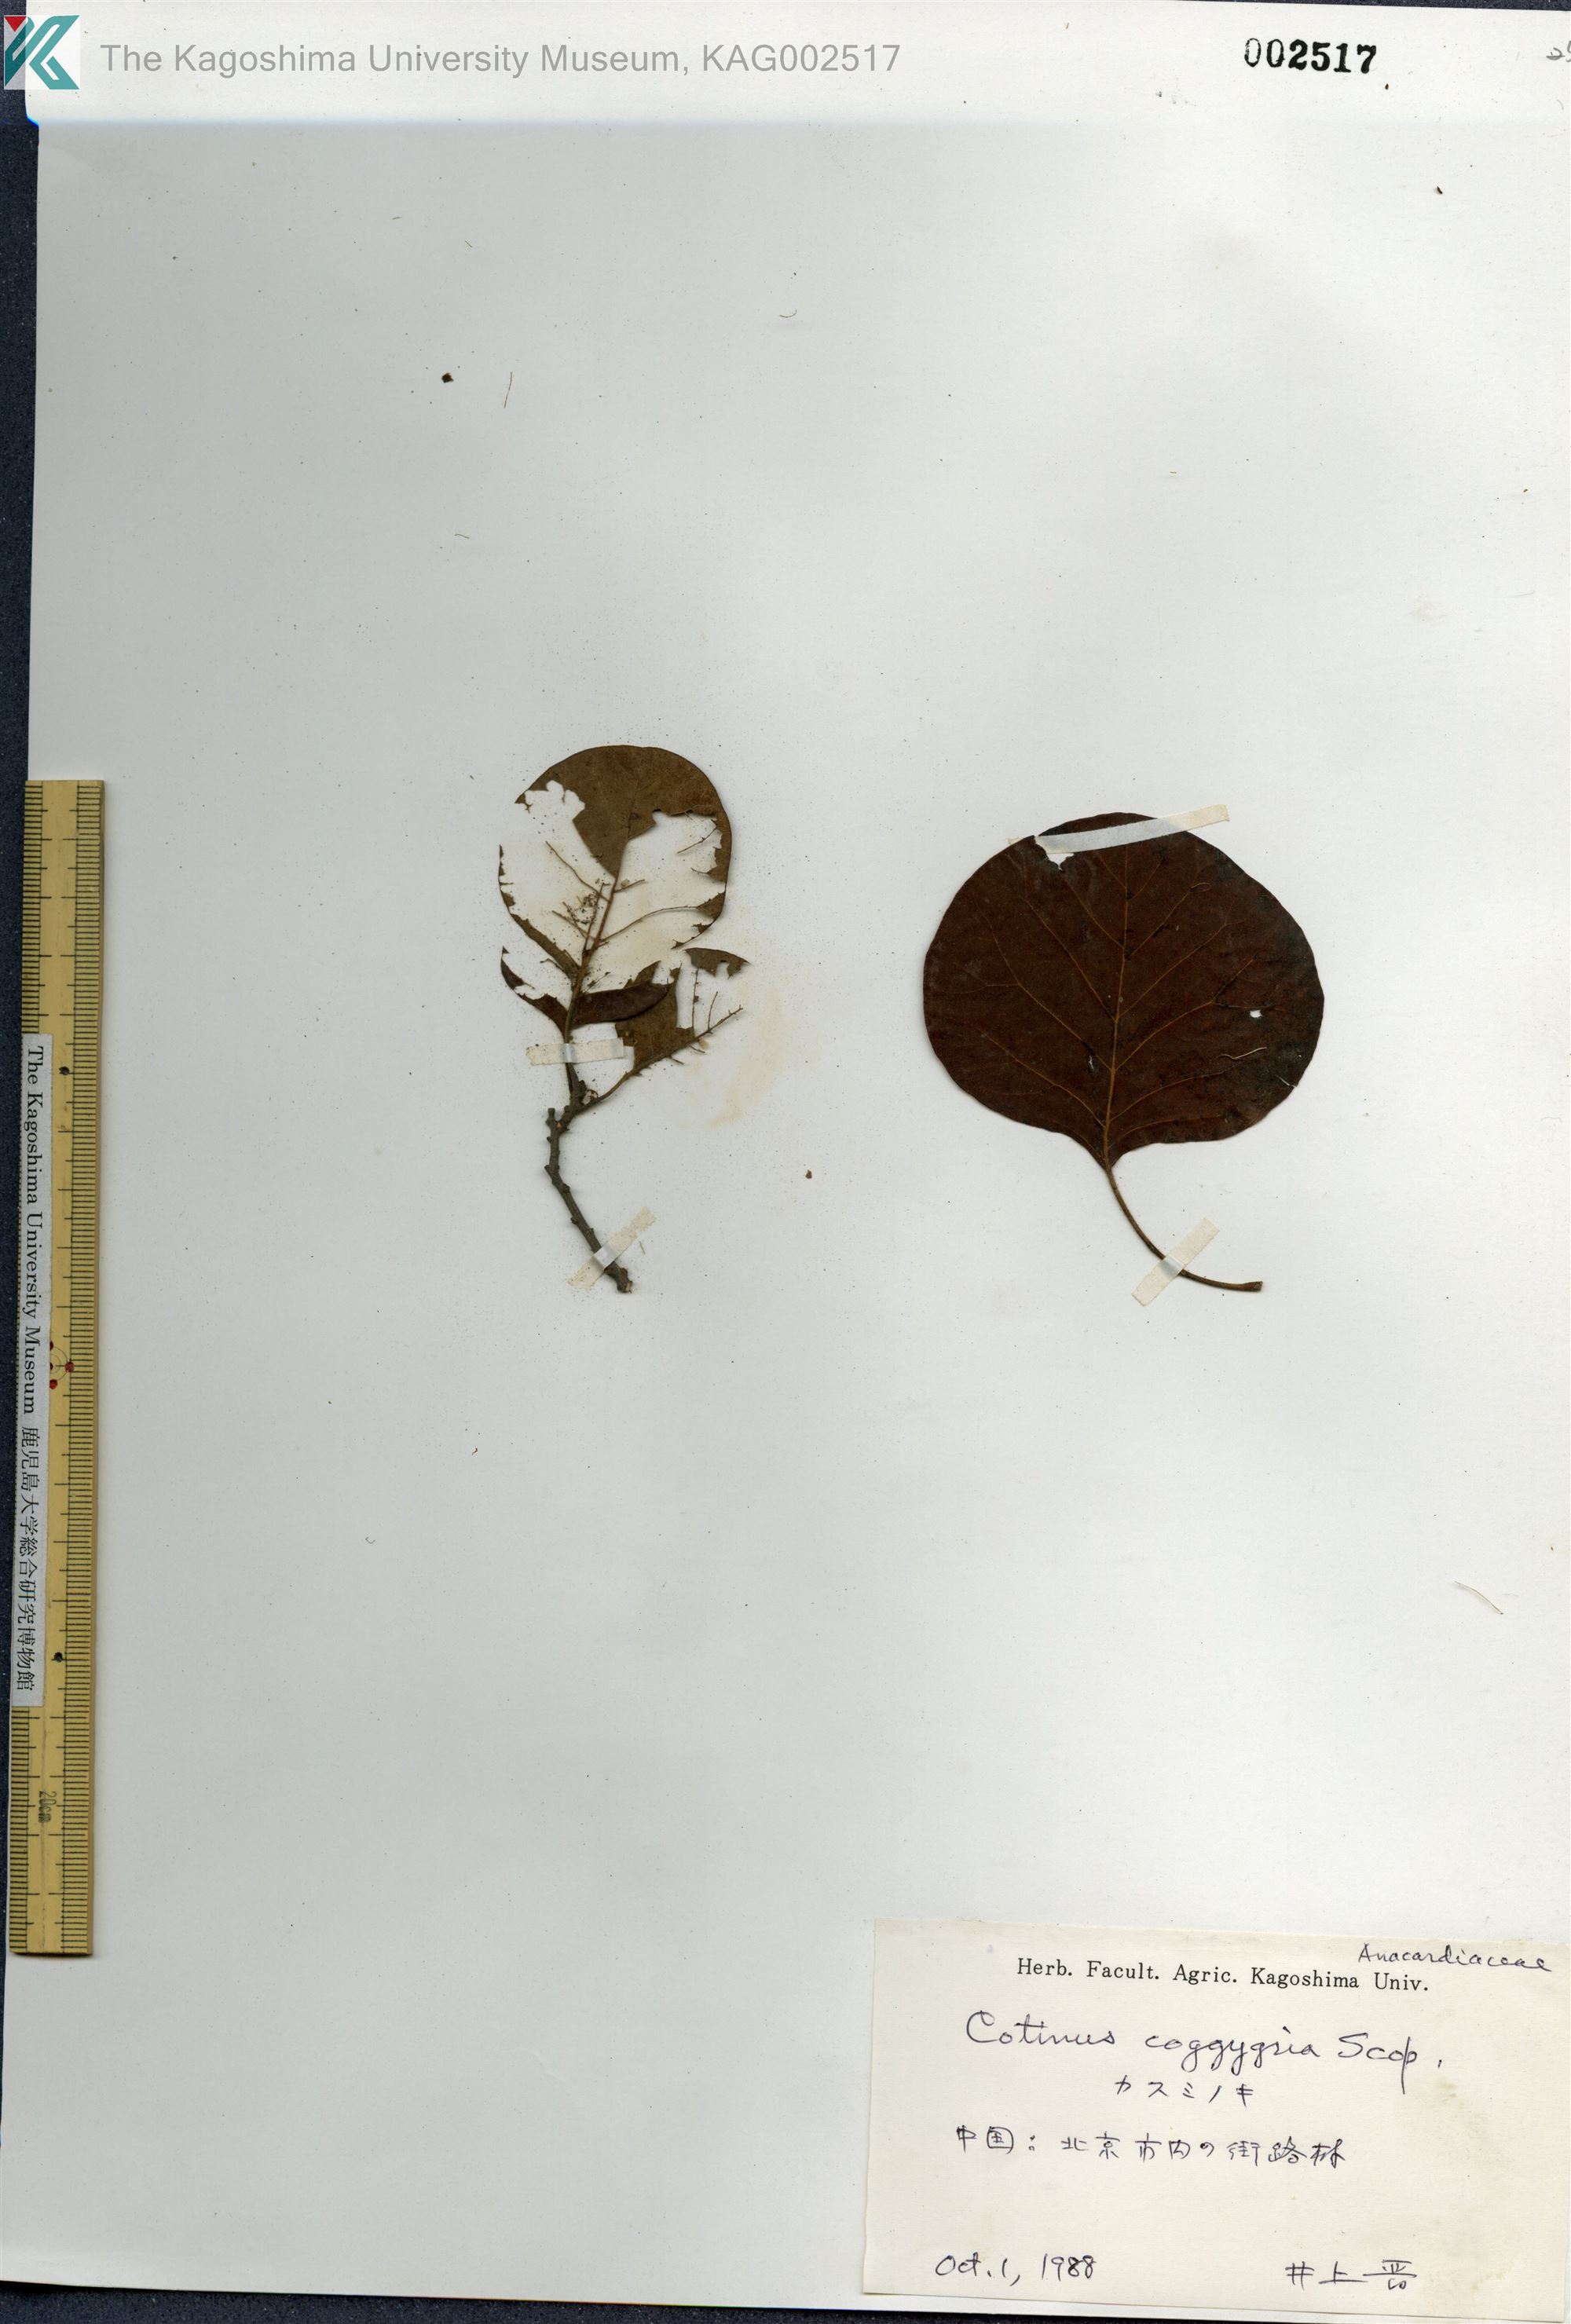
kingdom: Plantae
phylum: Tracheophyta
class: Magnoliopsida
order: Sapindales
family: Anacardiaceae
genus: Cotinus
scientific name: Cotinus coggygria
